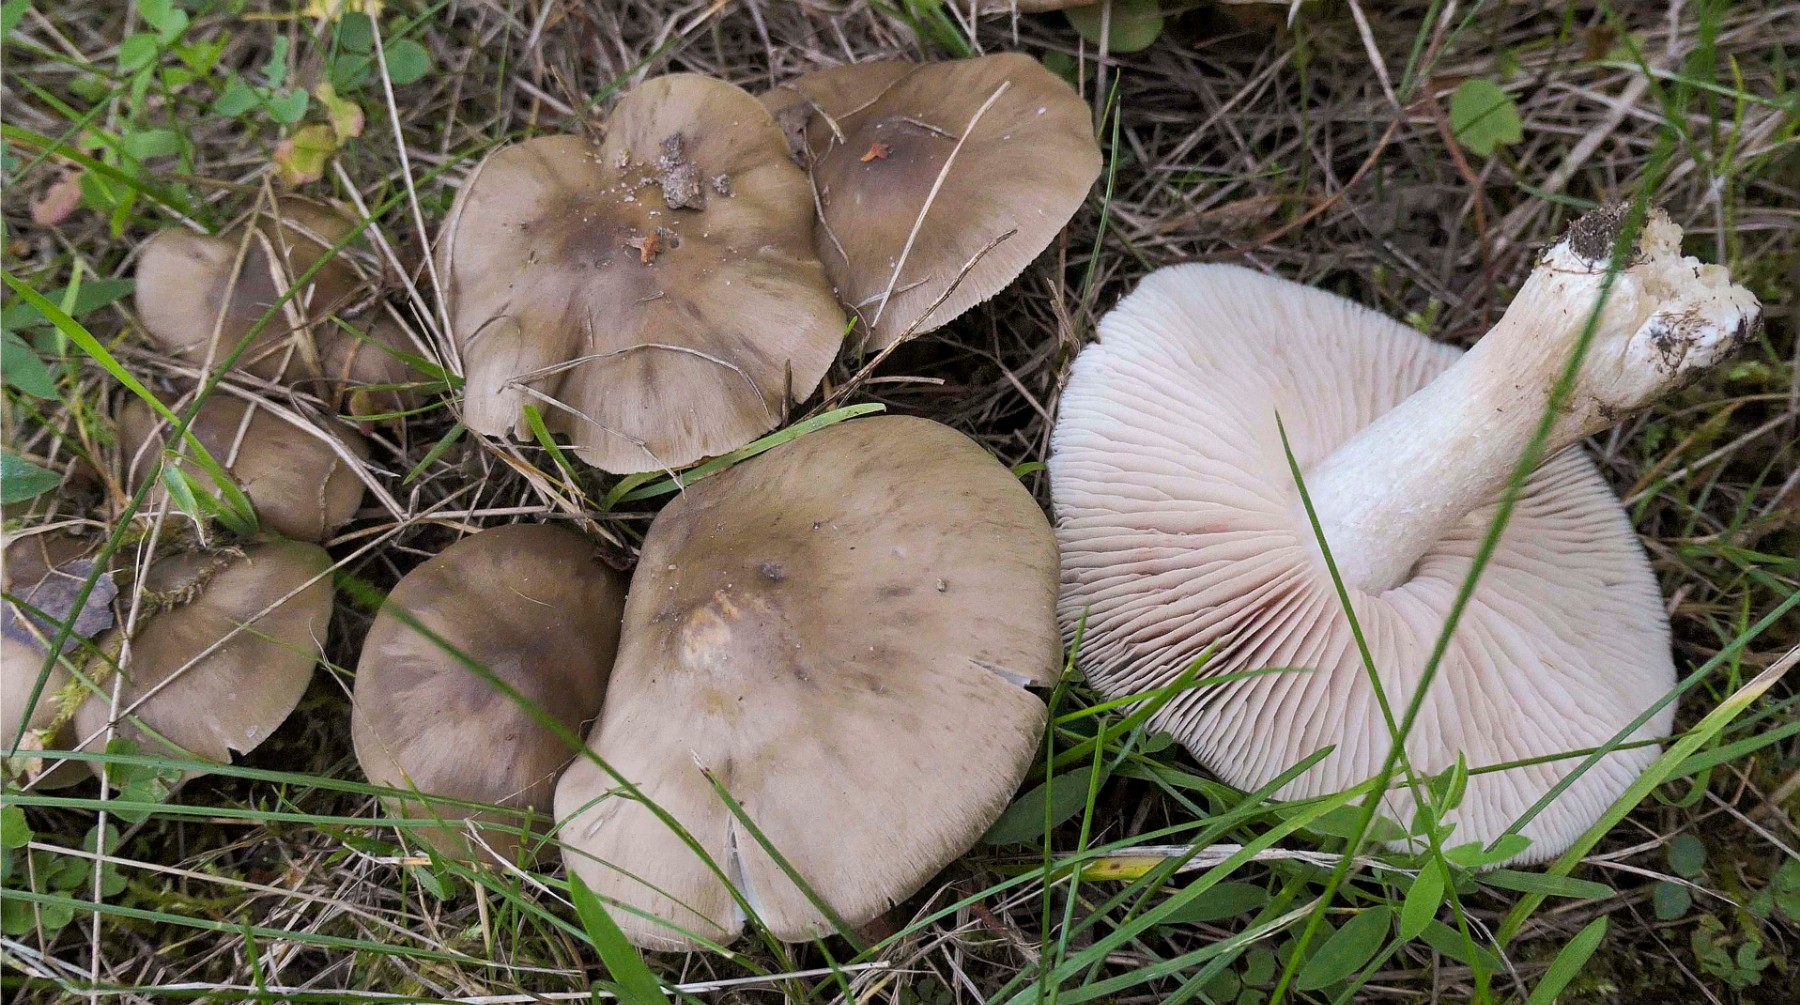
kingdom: Fungi
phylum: Basidiomycota
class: Agaricomycetes
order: Agaricales
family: Entolomataceae
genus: Entoloma
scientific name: Entoloma lividoalbum
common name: lysstokket rødblad
